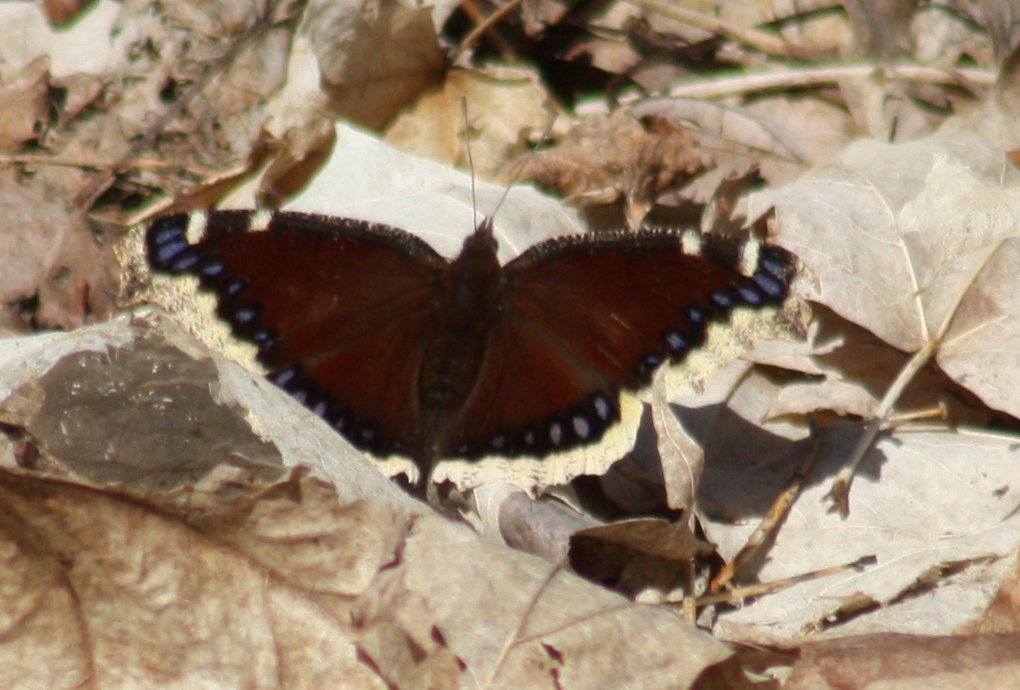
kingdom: Animalia
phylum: Arthropoda
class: Insecta
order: Lepidoptera
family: Nymphalidae
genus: Nymphalis
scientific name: Nymphalis antiopa
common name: Mourning Cloak
